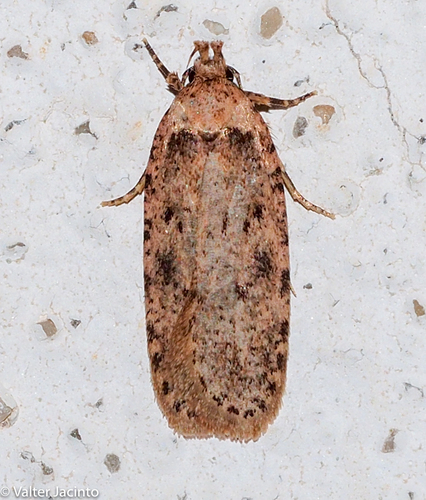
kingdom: Animalia
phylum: Arthropoda
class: Insecta
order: Lepidoptera
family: Depressariidae
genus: Agonopterix
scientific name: Agonopterix chironiella
